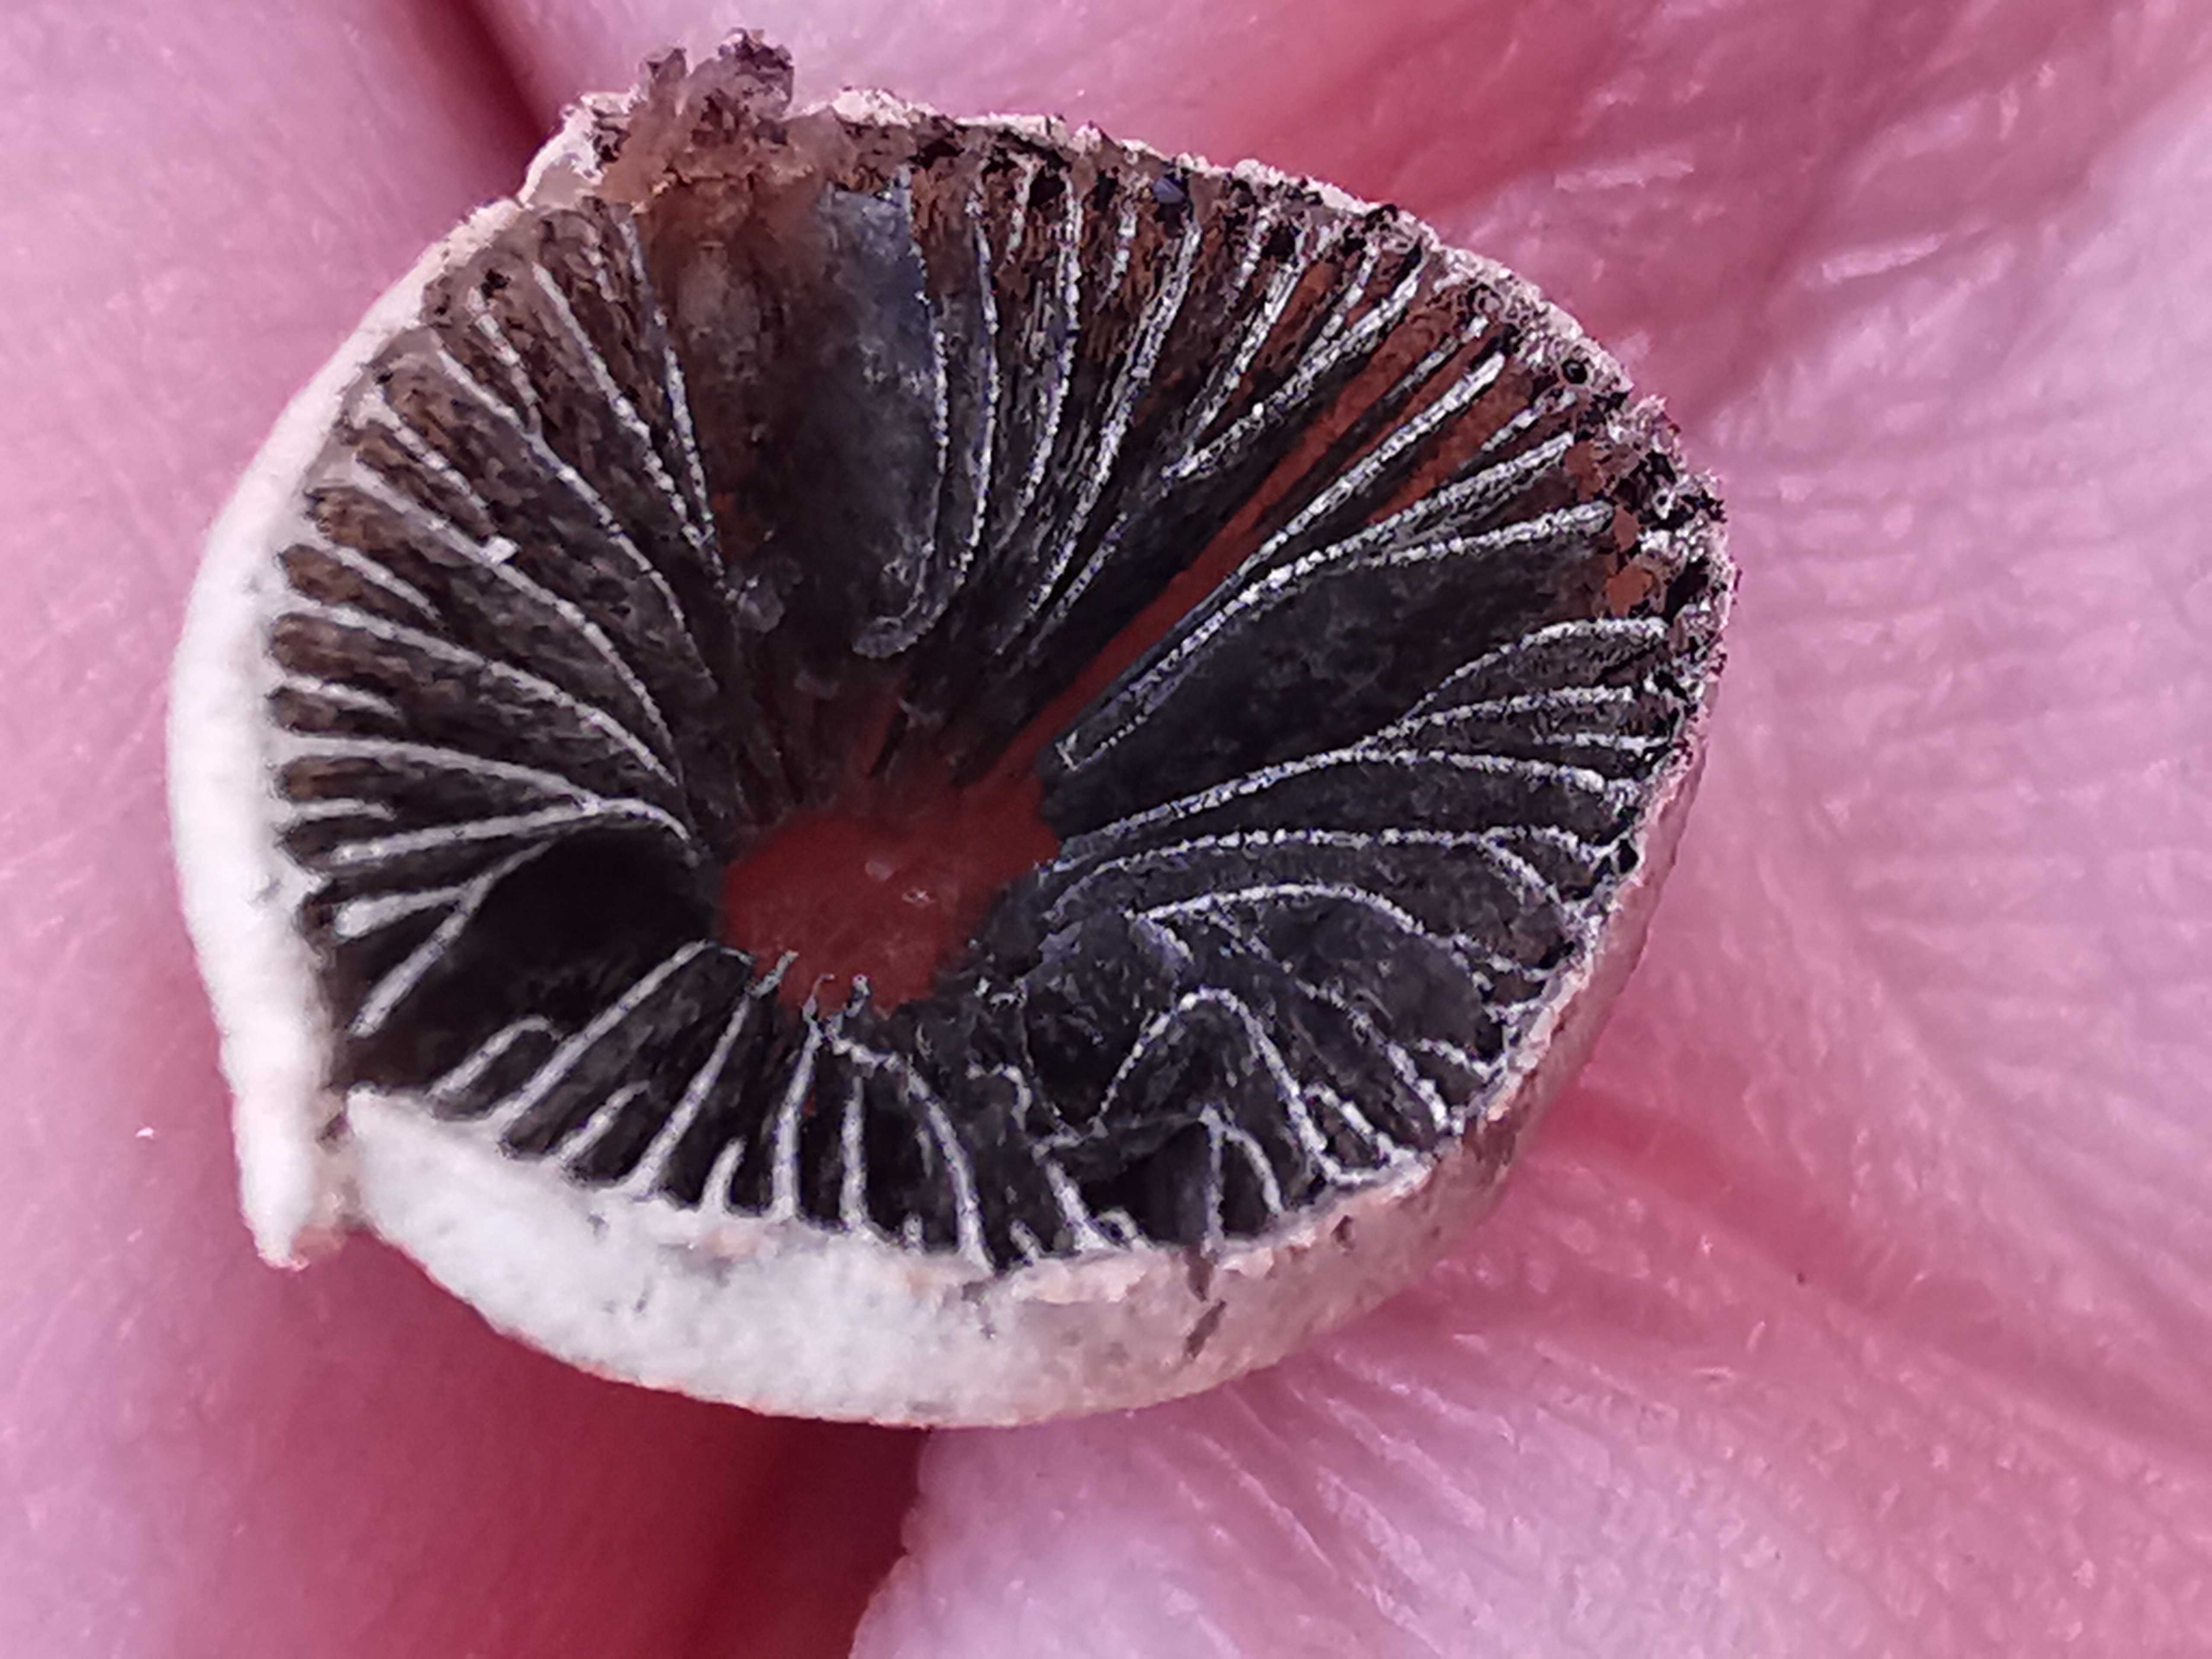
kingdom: Fungi
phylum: Basidiomycota
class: Agaricomycetes
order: Agaricales
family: Bolbitiaceae
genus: Panaeolus
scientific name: Panaeolus papilionaceus
